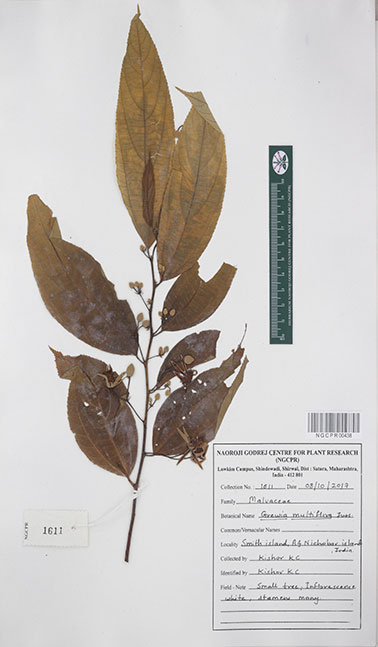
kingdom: Plantae
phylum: Tracheophyta
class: Magnoliopsida
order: Malvales
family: Malvaceae
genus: Grewia
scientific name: Grewia multiflora
